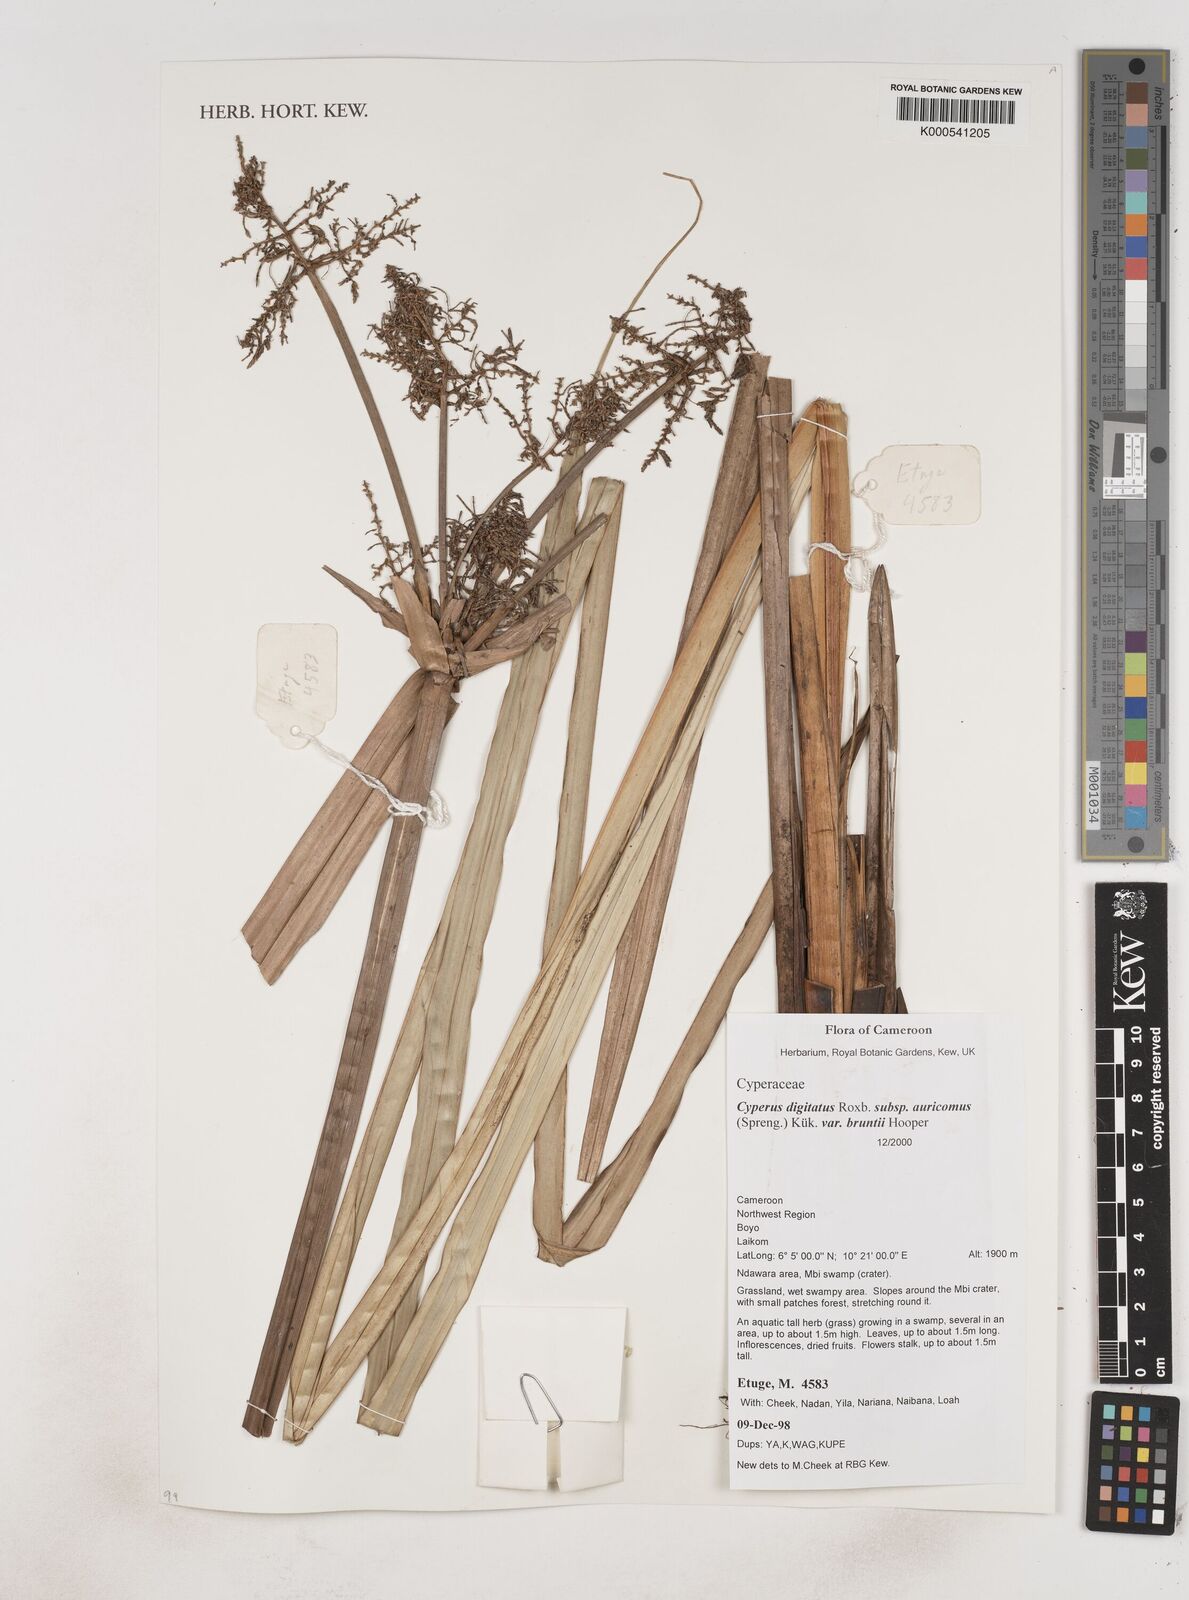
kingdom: Plantae
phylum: Tracheophyta
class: Liliopsida
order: Poales
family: Cyperaceae
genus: Cyperus
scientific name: Cyperus digitatus
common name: Finger flatsedge
